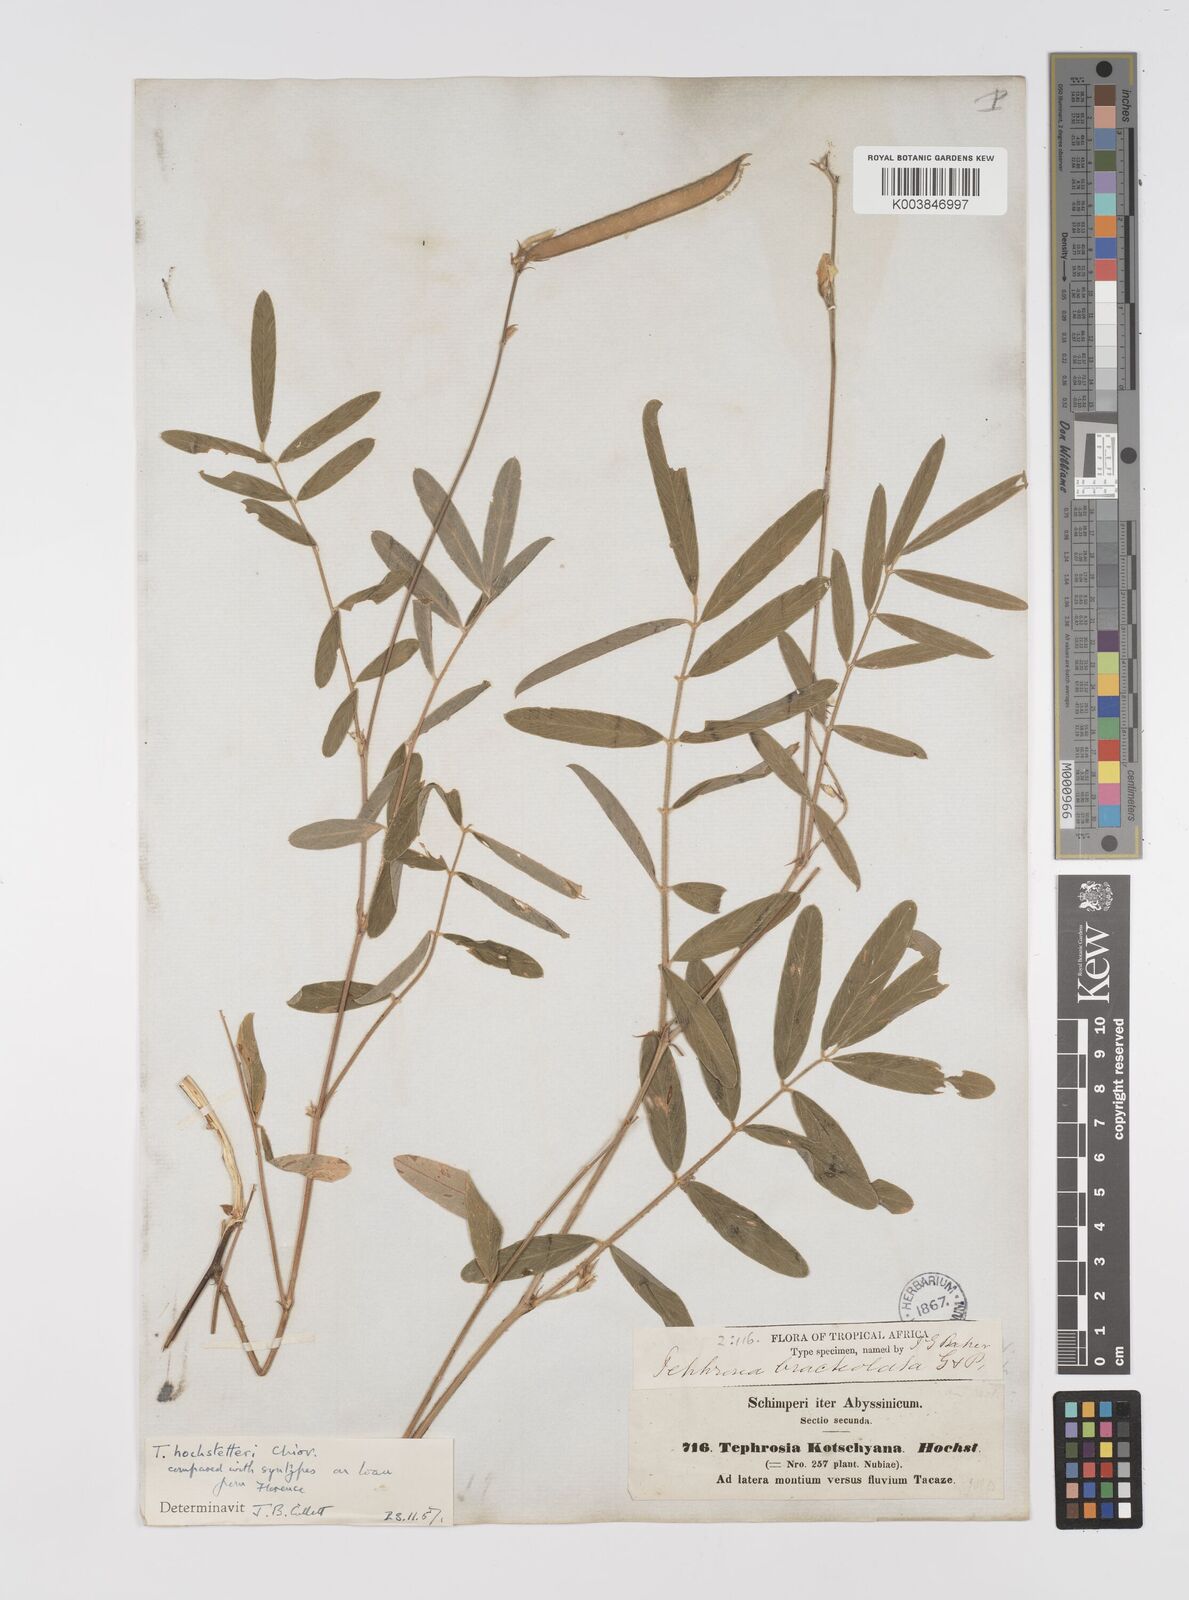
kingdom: Plantae
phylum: Tracheophyta
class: Magnoliopsida
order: Fabales
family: Fabaceae
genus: Tephrosia
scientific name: Tephrosia hochstetteri
